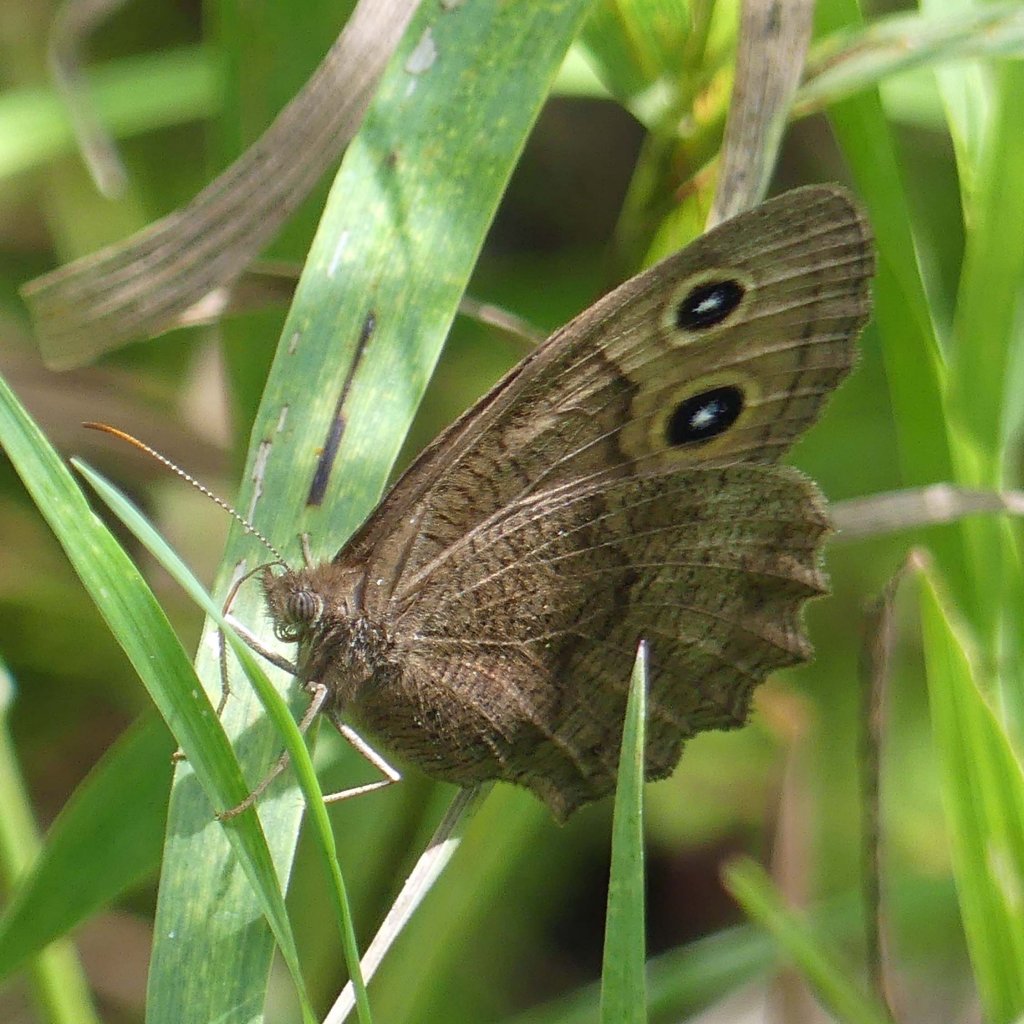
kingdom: Animalia
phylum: Arthropoda
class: Insecta
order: Lepidoptera
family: Nymphalidae
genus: Cercyonis
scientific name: Cercyonis pegala
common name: Common Wood-Nymph
